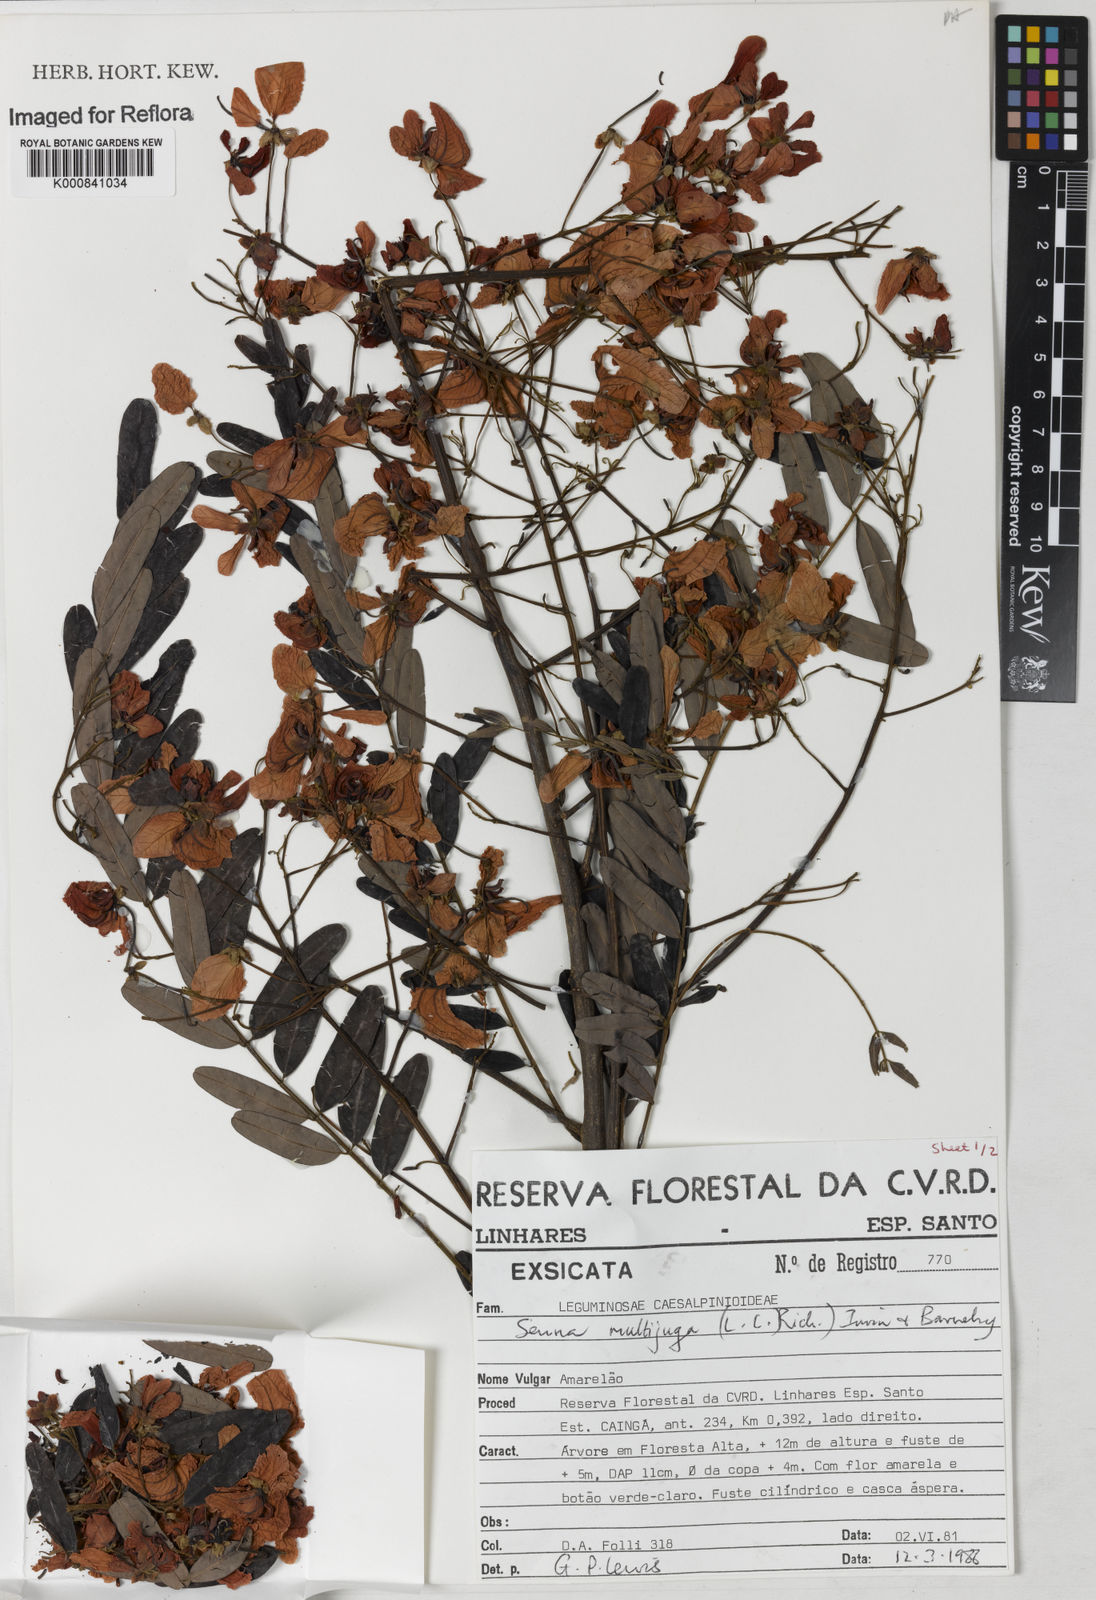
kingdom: Plantae
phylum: Tracheophyta
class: Magnoliopsida
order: Fabales
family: Fabaceae
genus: Senna
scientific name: Senna multijuga
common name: False sicklepod
